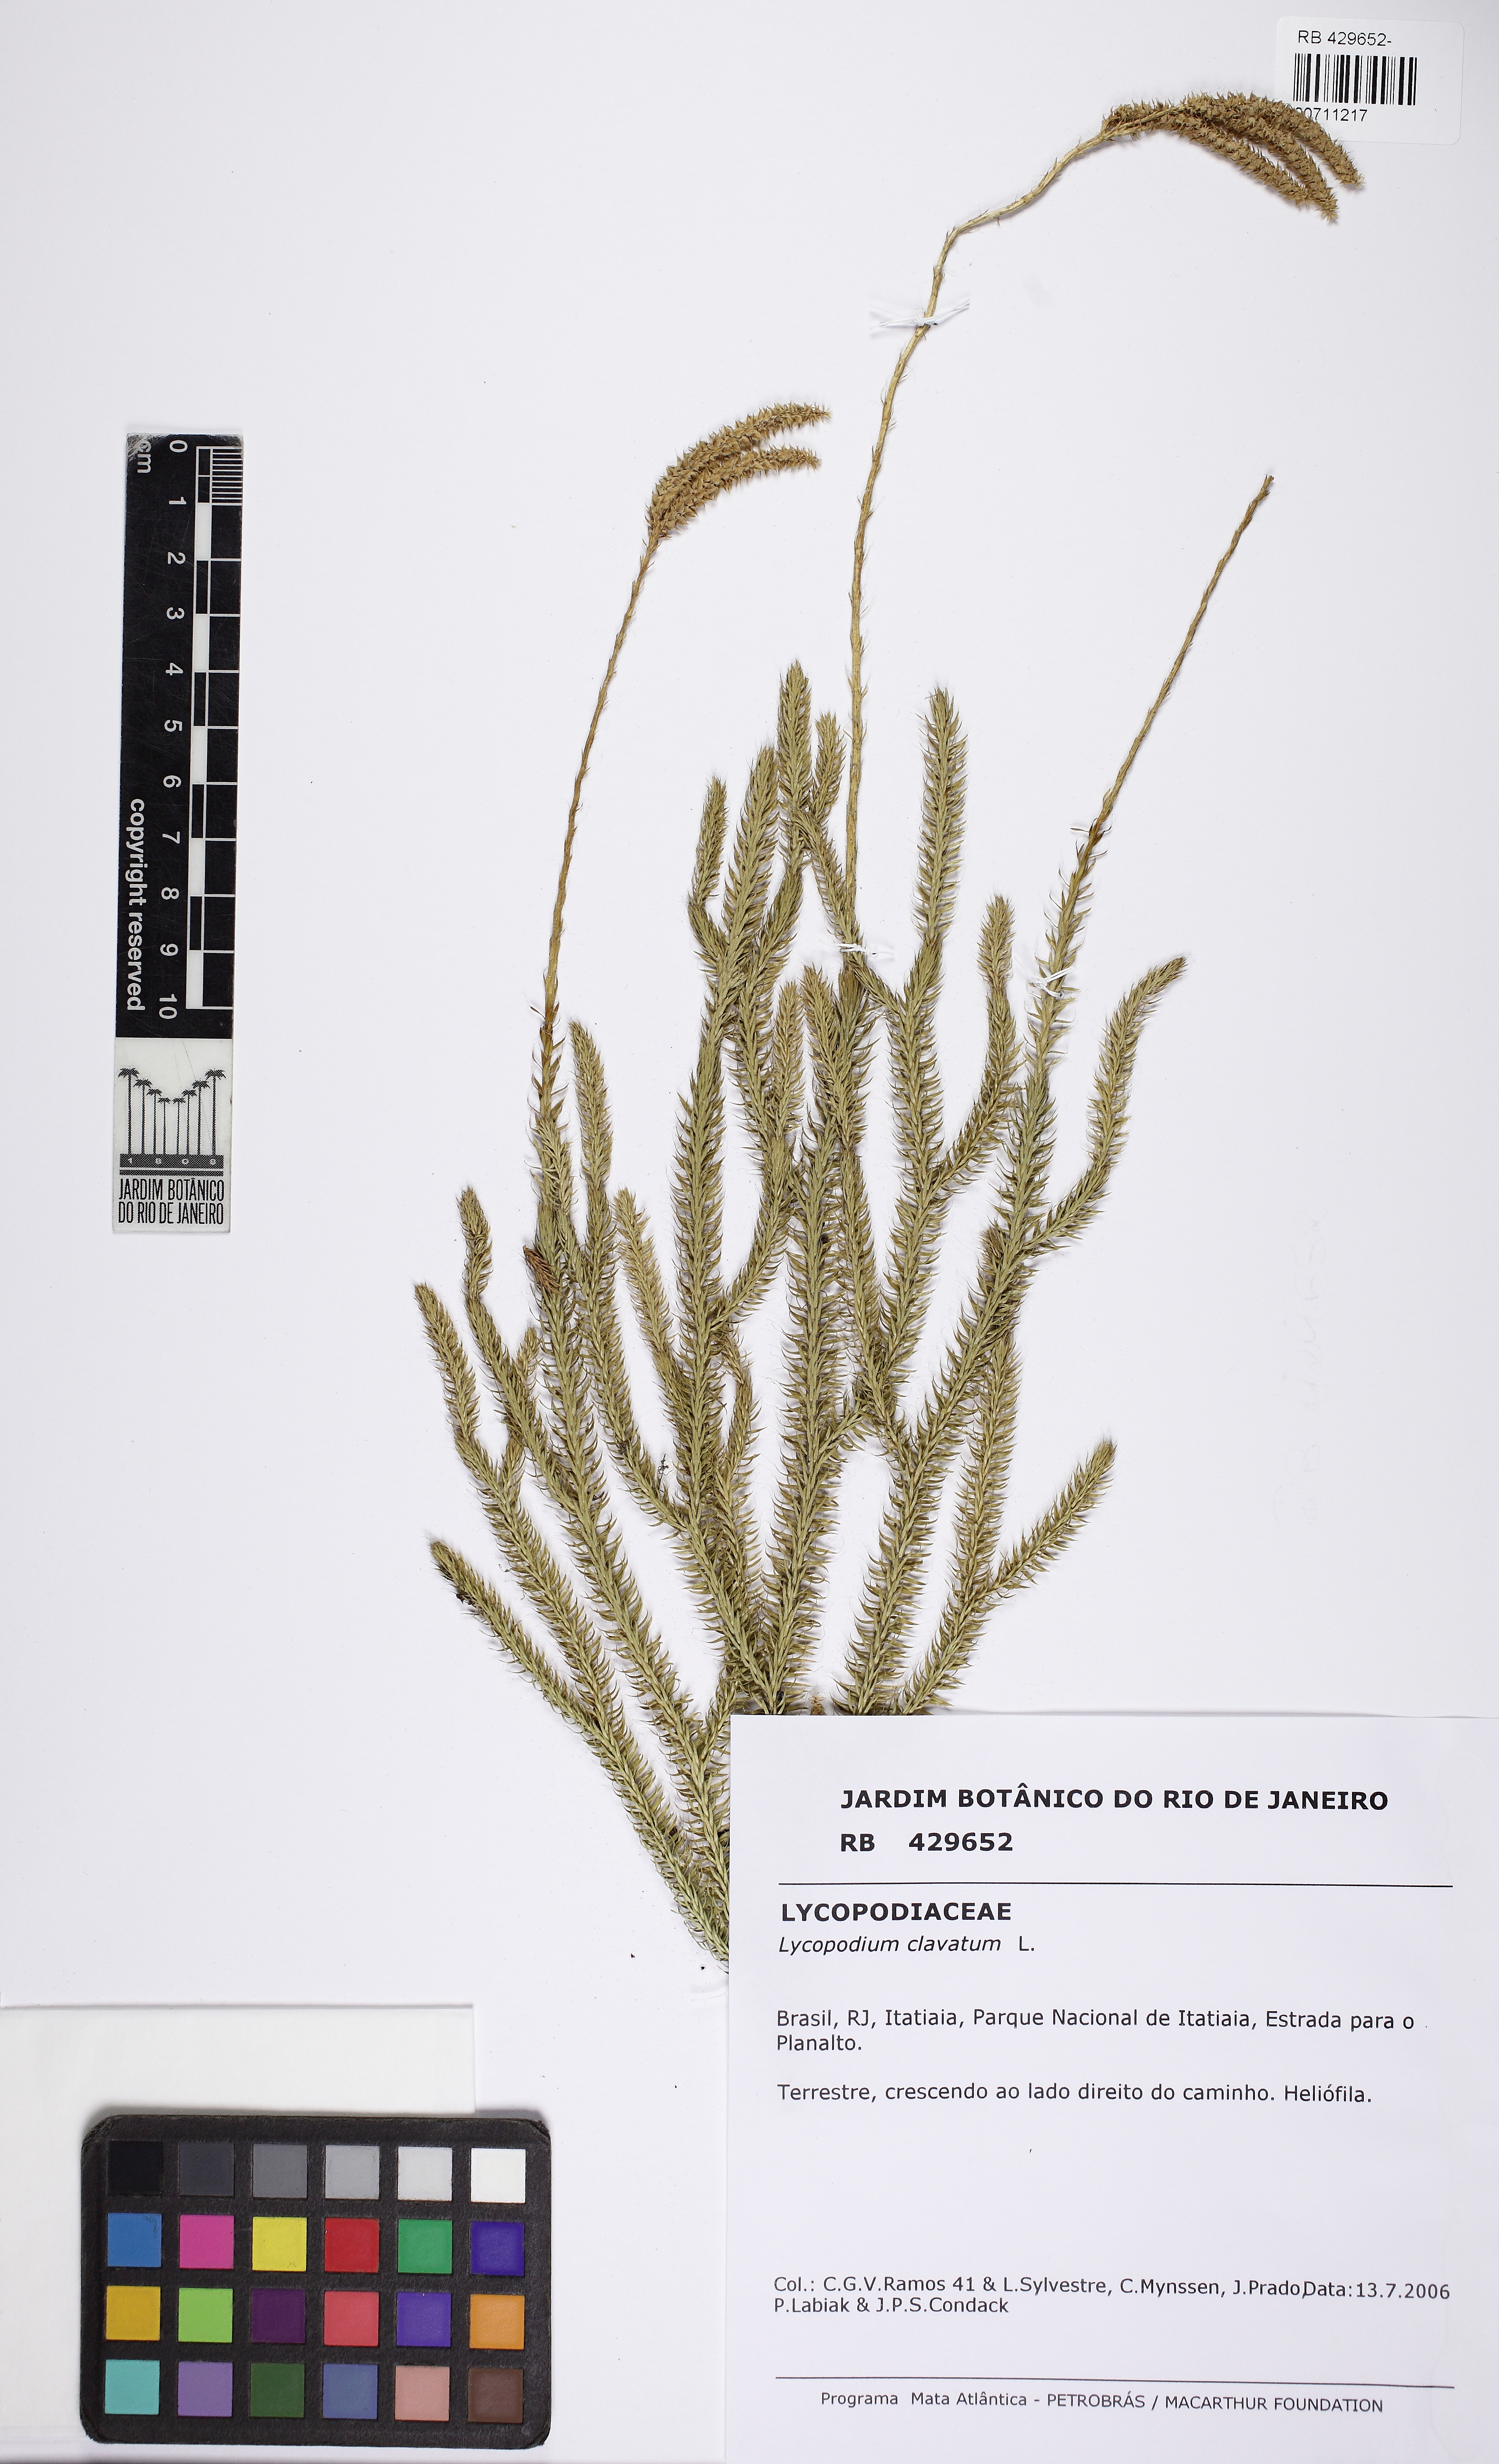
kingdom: Plantae
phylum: Tracheophyta
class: Lycopodiopsida
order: Lycopodiales
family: Lycopodiaceae
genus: Lycopodium
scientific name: Lycopodium clavatum
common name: Stag's-horn clubmoss
